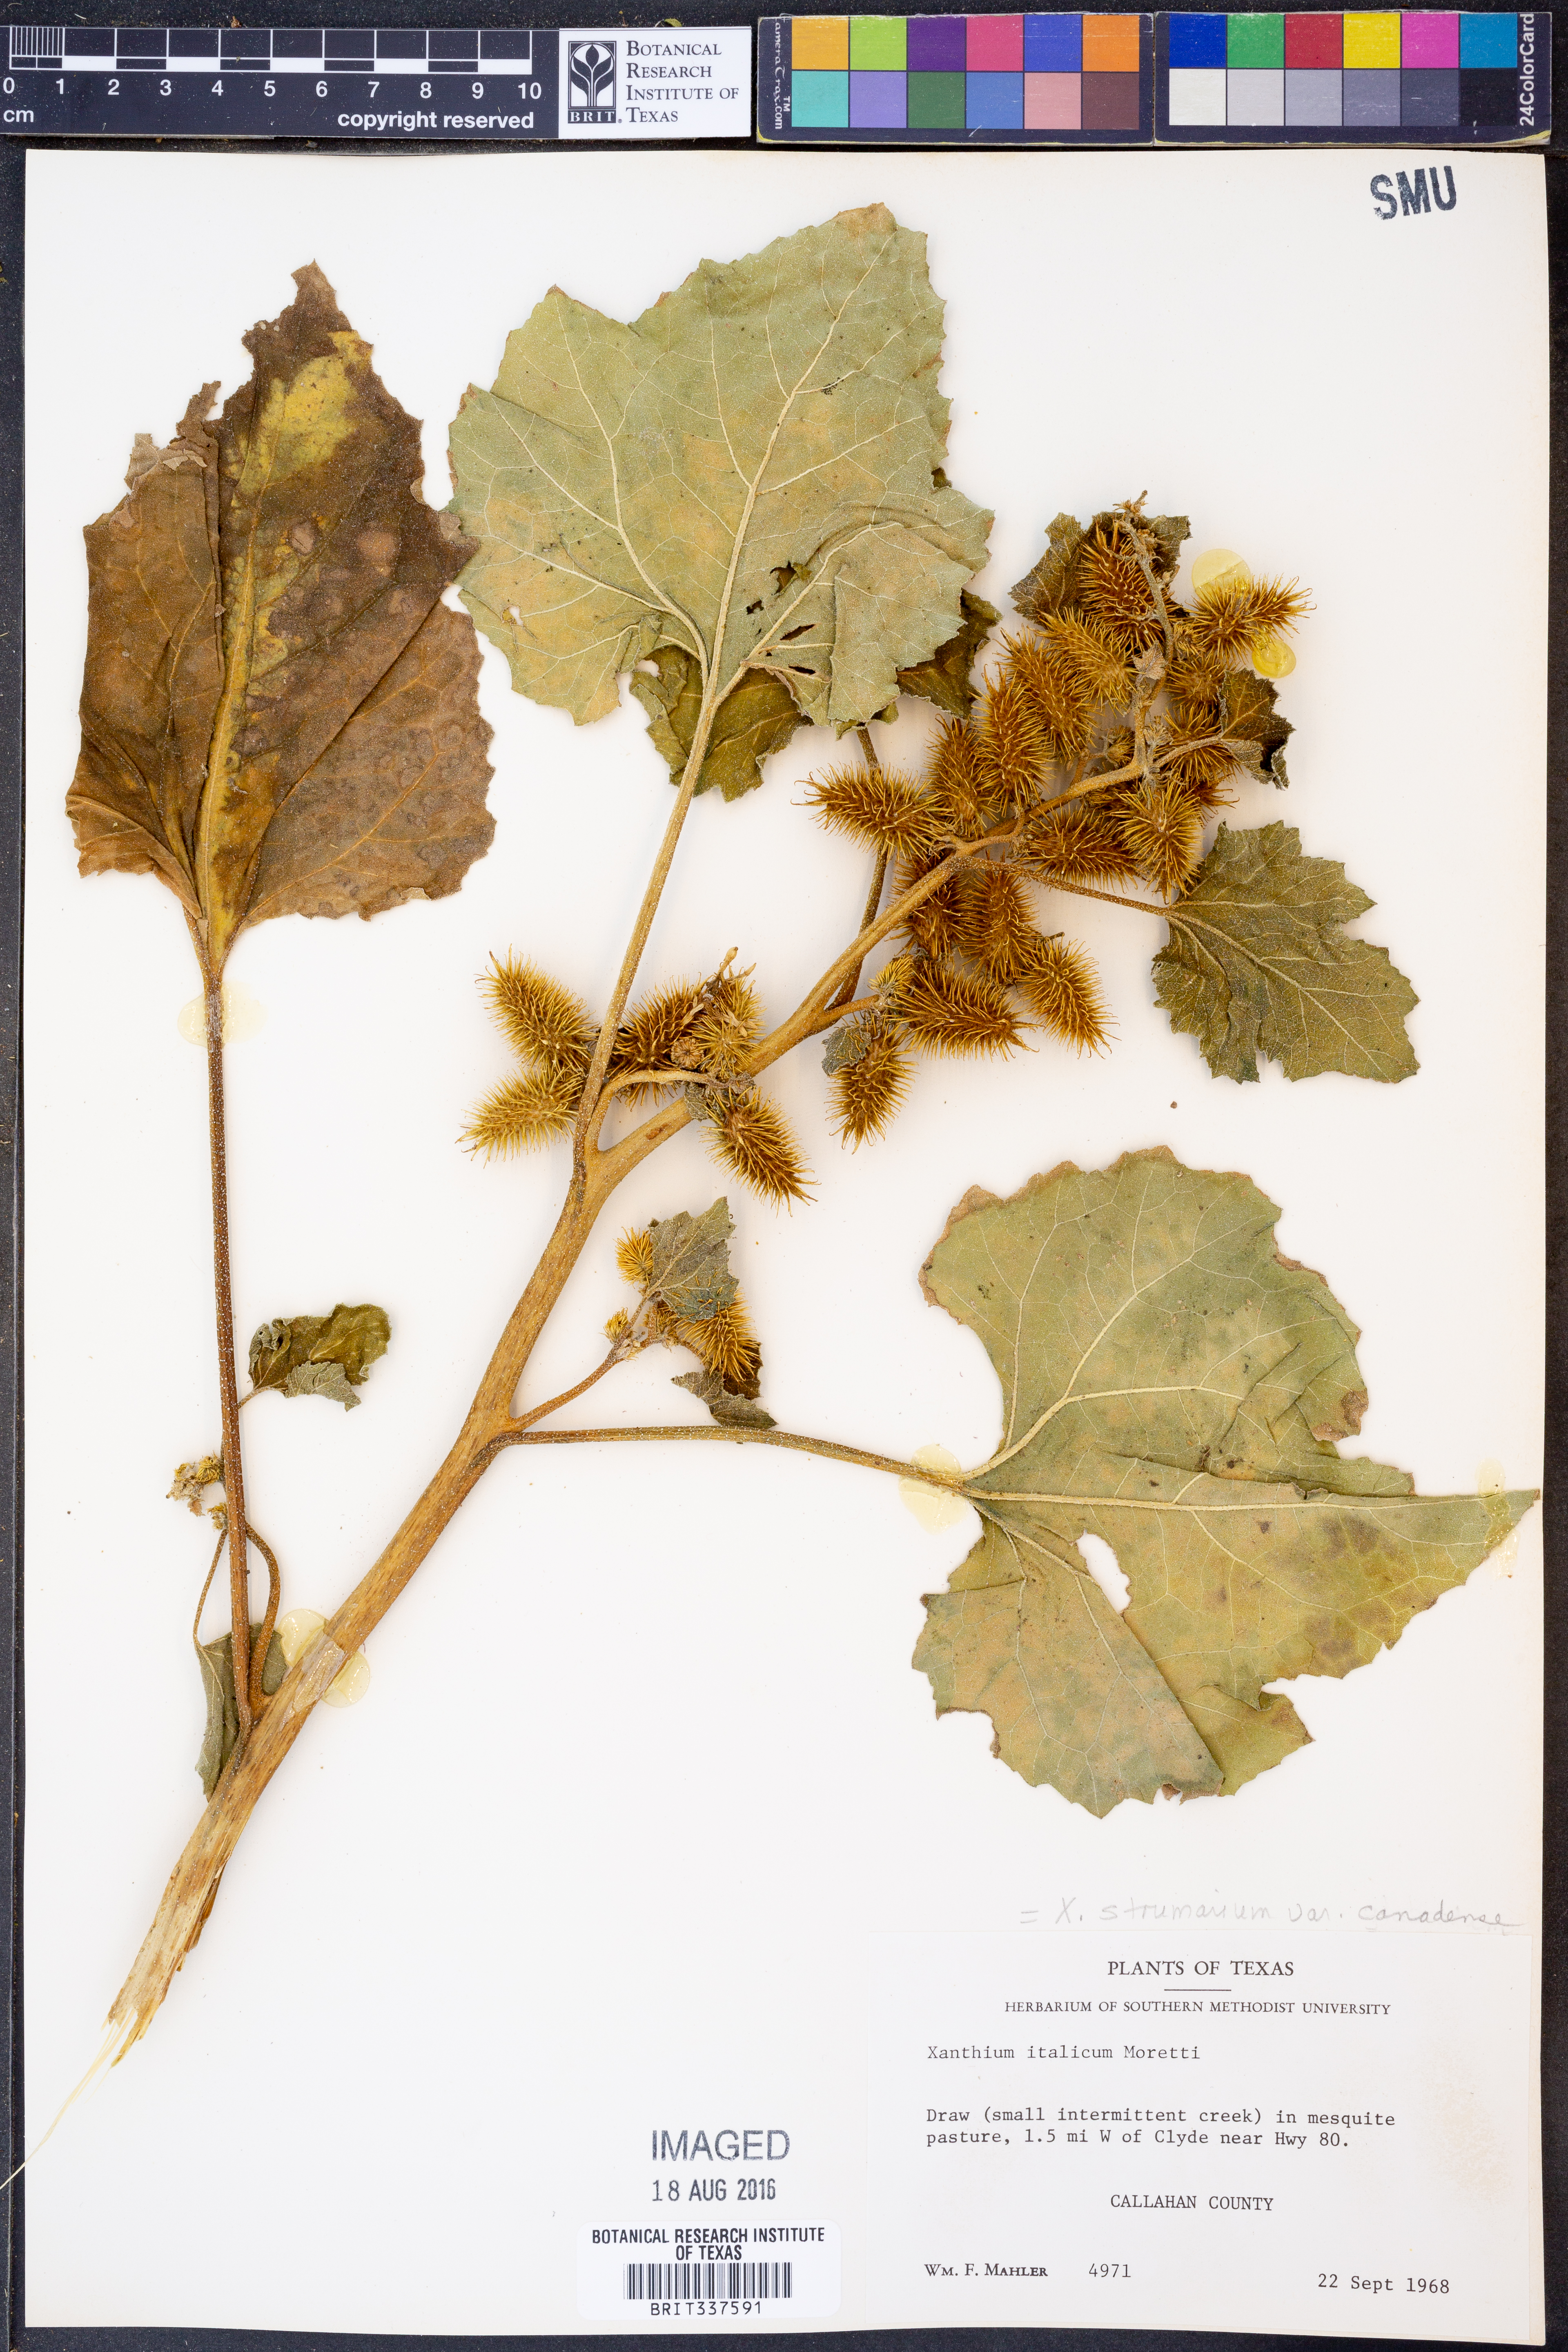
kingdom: Plantae
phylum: Tracheophyta
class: Magnoliopsida
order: Asterales
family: Asteraceae
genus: Xanthium
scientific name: Xanthium orientale
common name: Californian burr
